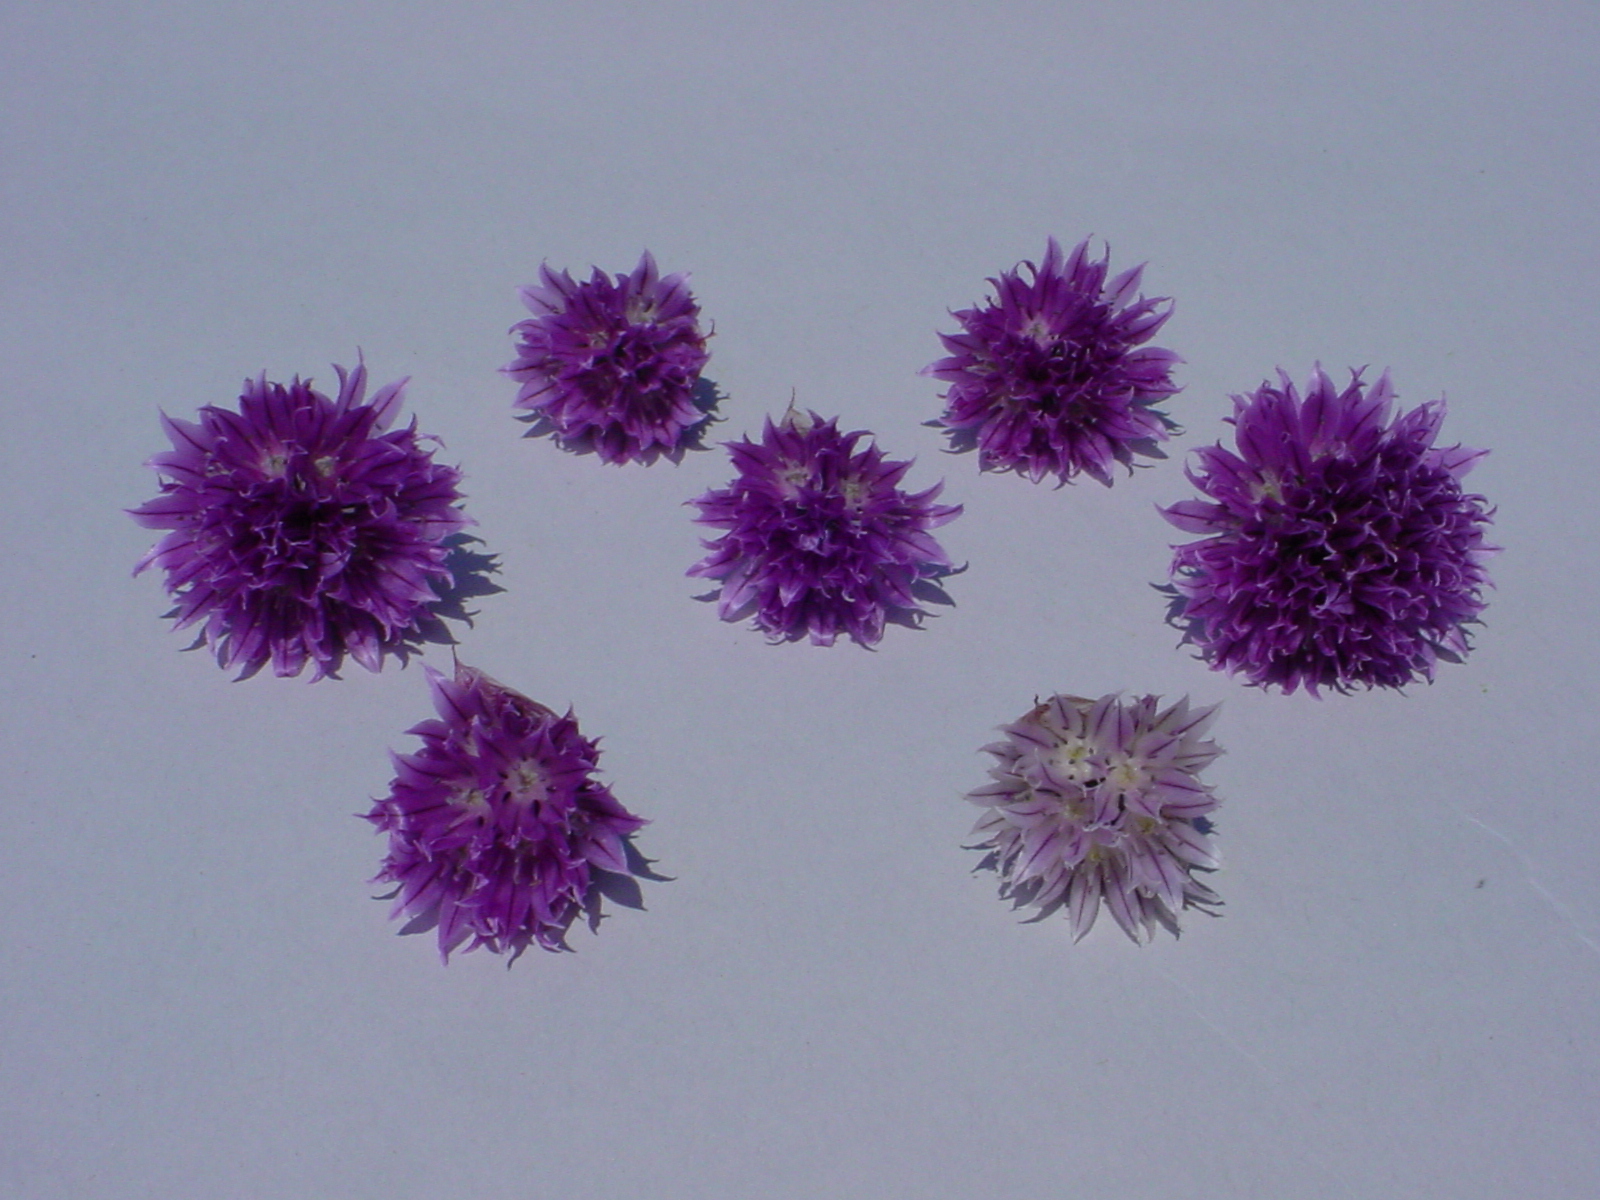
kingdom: Plantae
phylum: Tracheophyta
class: Liliopsida
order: Asparagales
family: Amaryllidaceae
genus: Allium
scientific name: Allium schoenoprasum
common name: Chives
